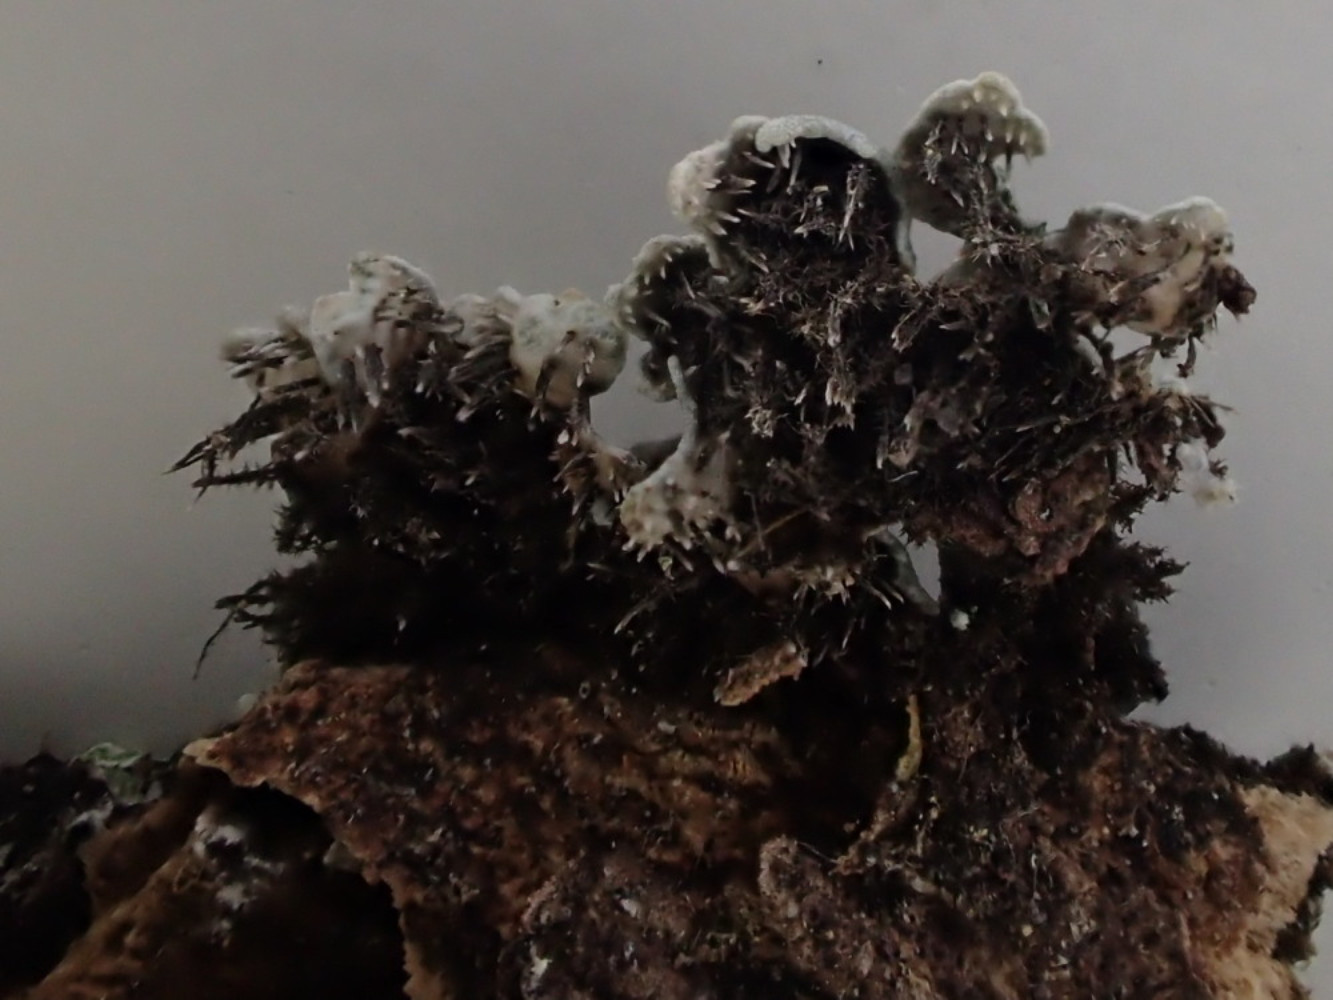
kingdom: Fungi
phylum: Ascomycota
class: Lecanoromycetes
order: Caliciales
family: Physciaceae
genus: Physconia
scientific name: Physconia distorta
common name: pudret dugrosetlav
